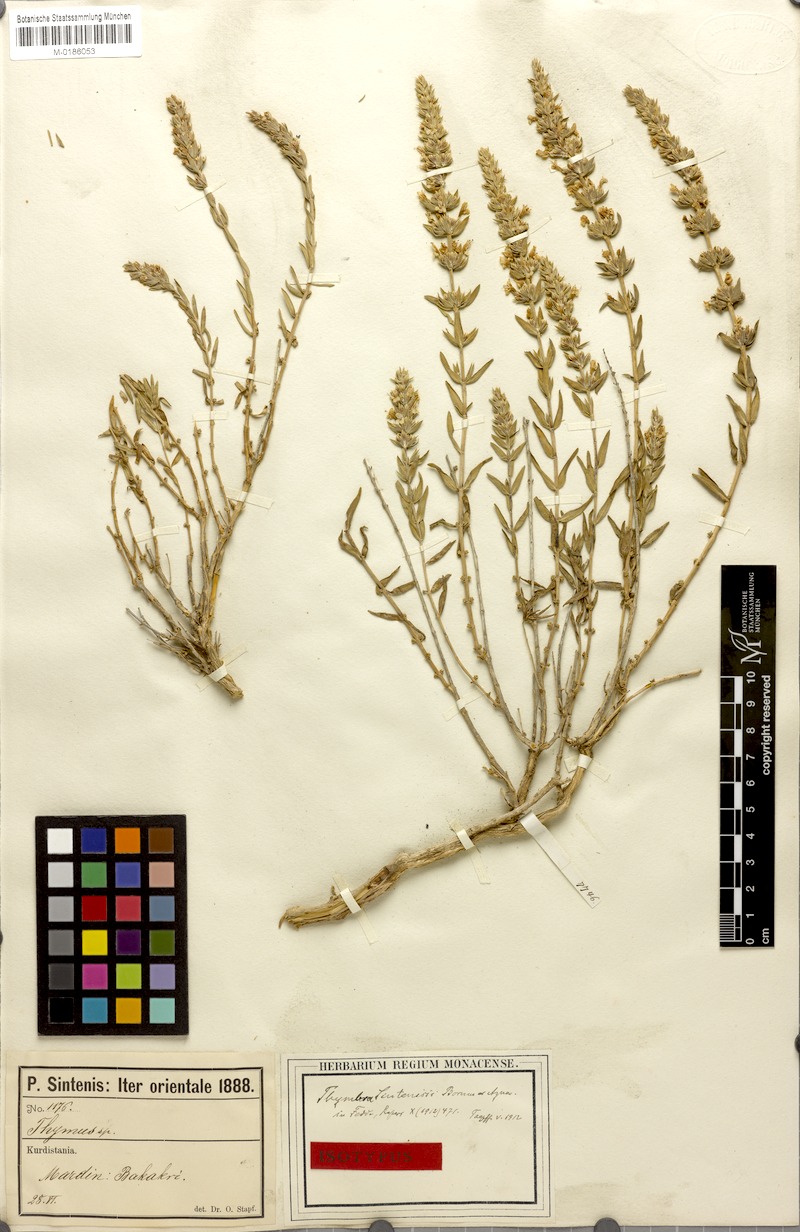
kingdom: Plantae
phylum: Tracheophyta
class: Magnoliopsida
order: Lamiales
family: Lamiaceae
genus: Thymbra
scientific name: Thymbra sintenisii
